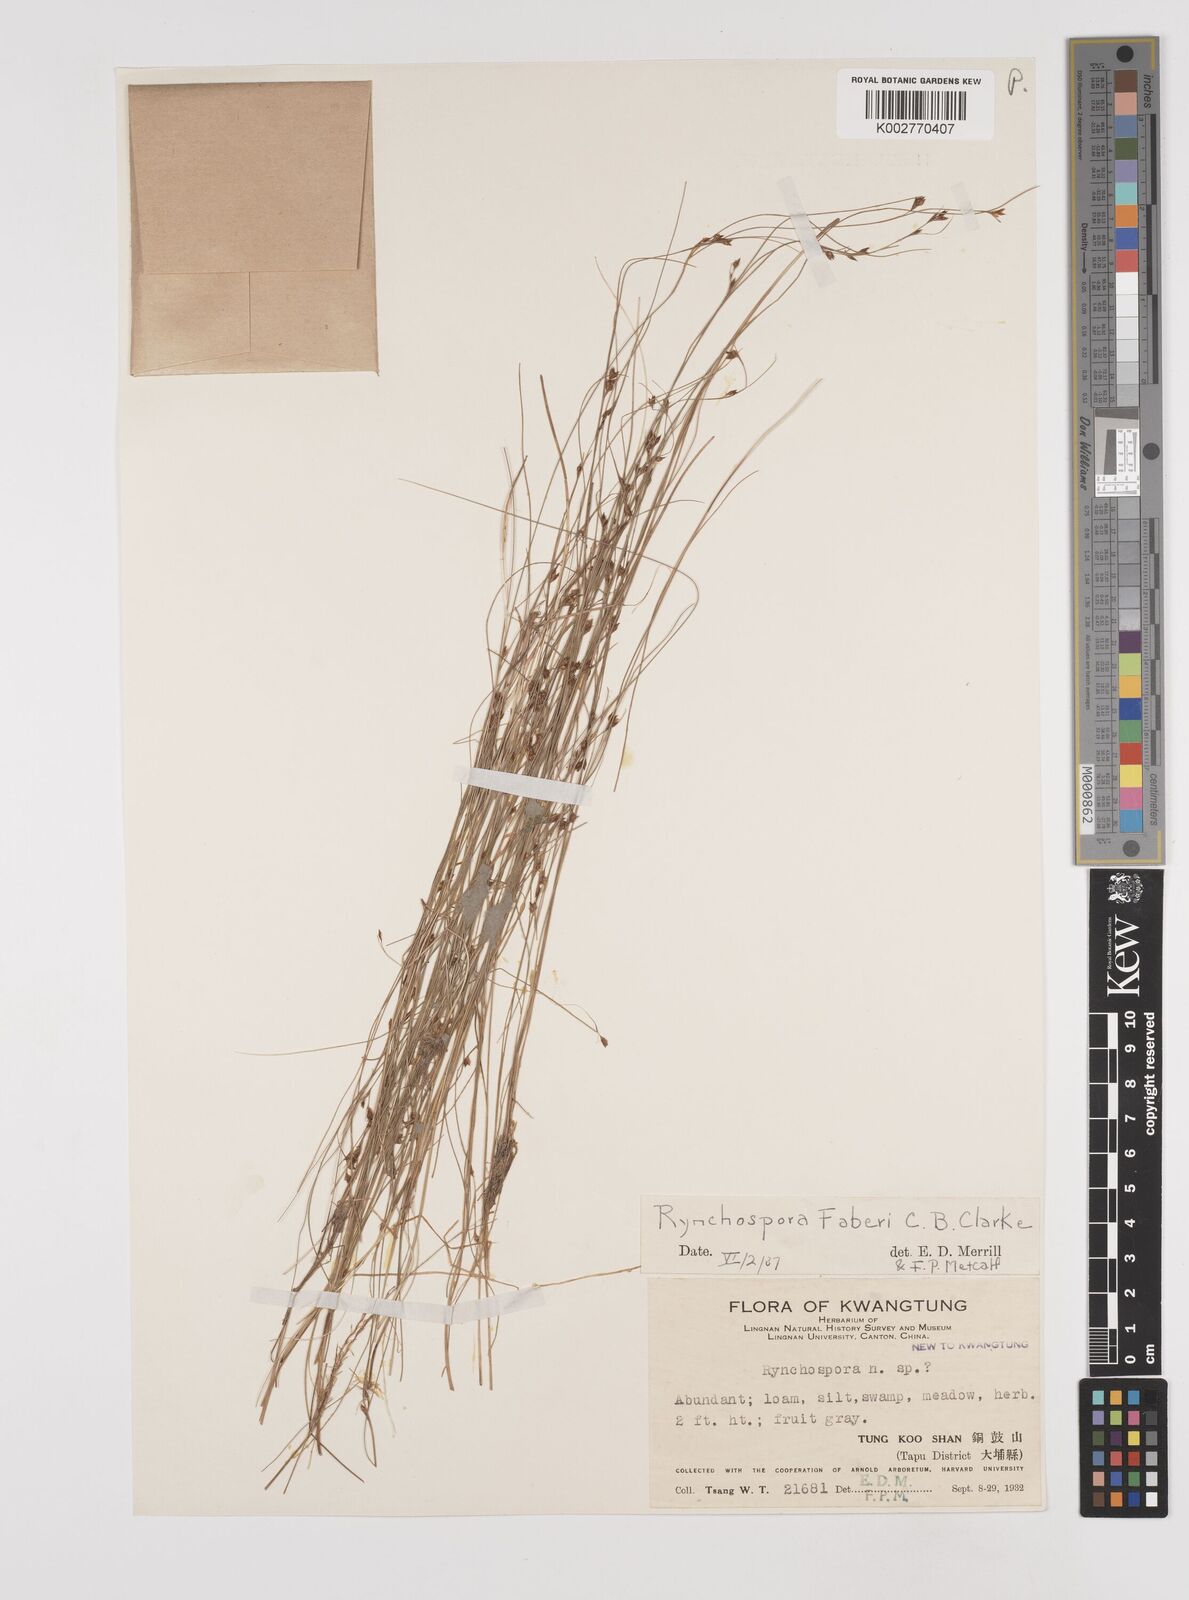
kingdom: Plantae
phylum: Tracheophyta
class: Liliopsida
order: Poales
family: Cyperaceae
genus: Rhynchospora
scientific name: Rhynchospora faberi
